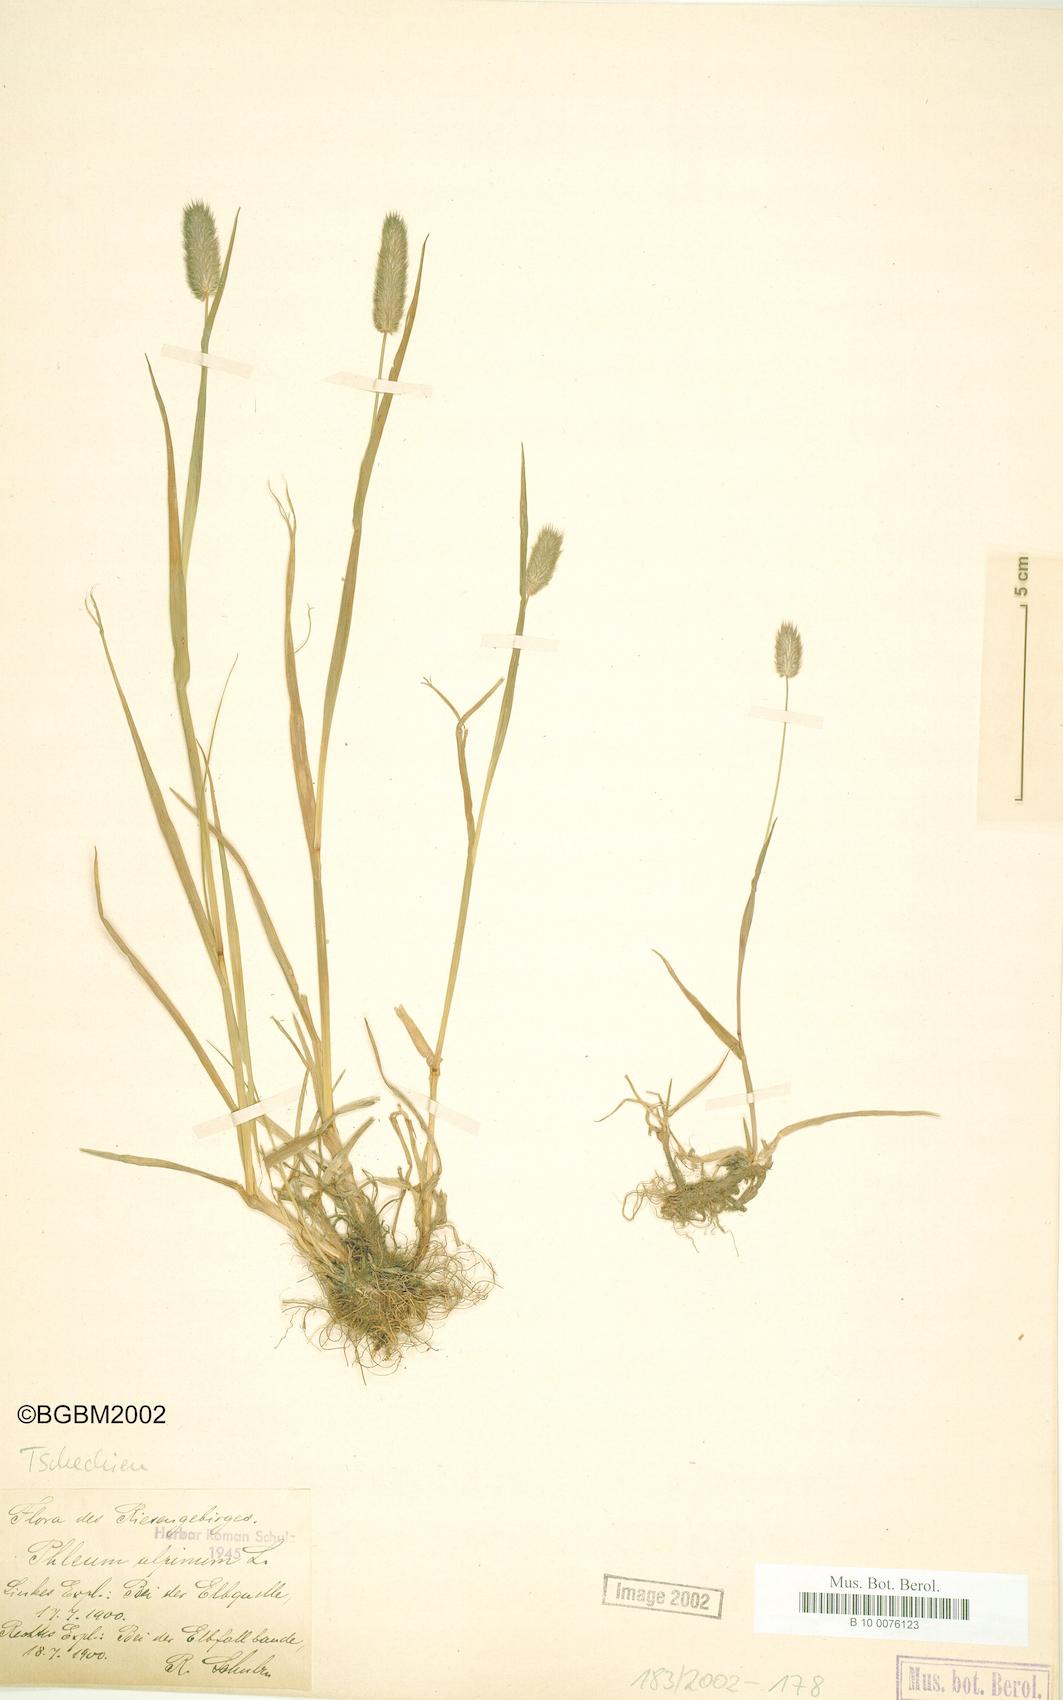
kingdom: Plantae
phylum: Tracheophyta
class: Liliopsida
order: Poales
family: Poaceae
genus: Phleum
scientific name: Phleum alpinum
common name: Alpine cat's-tail
